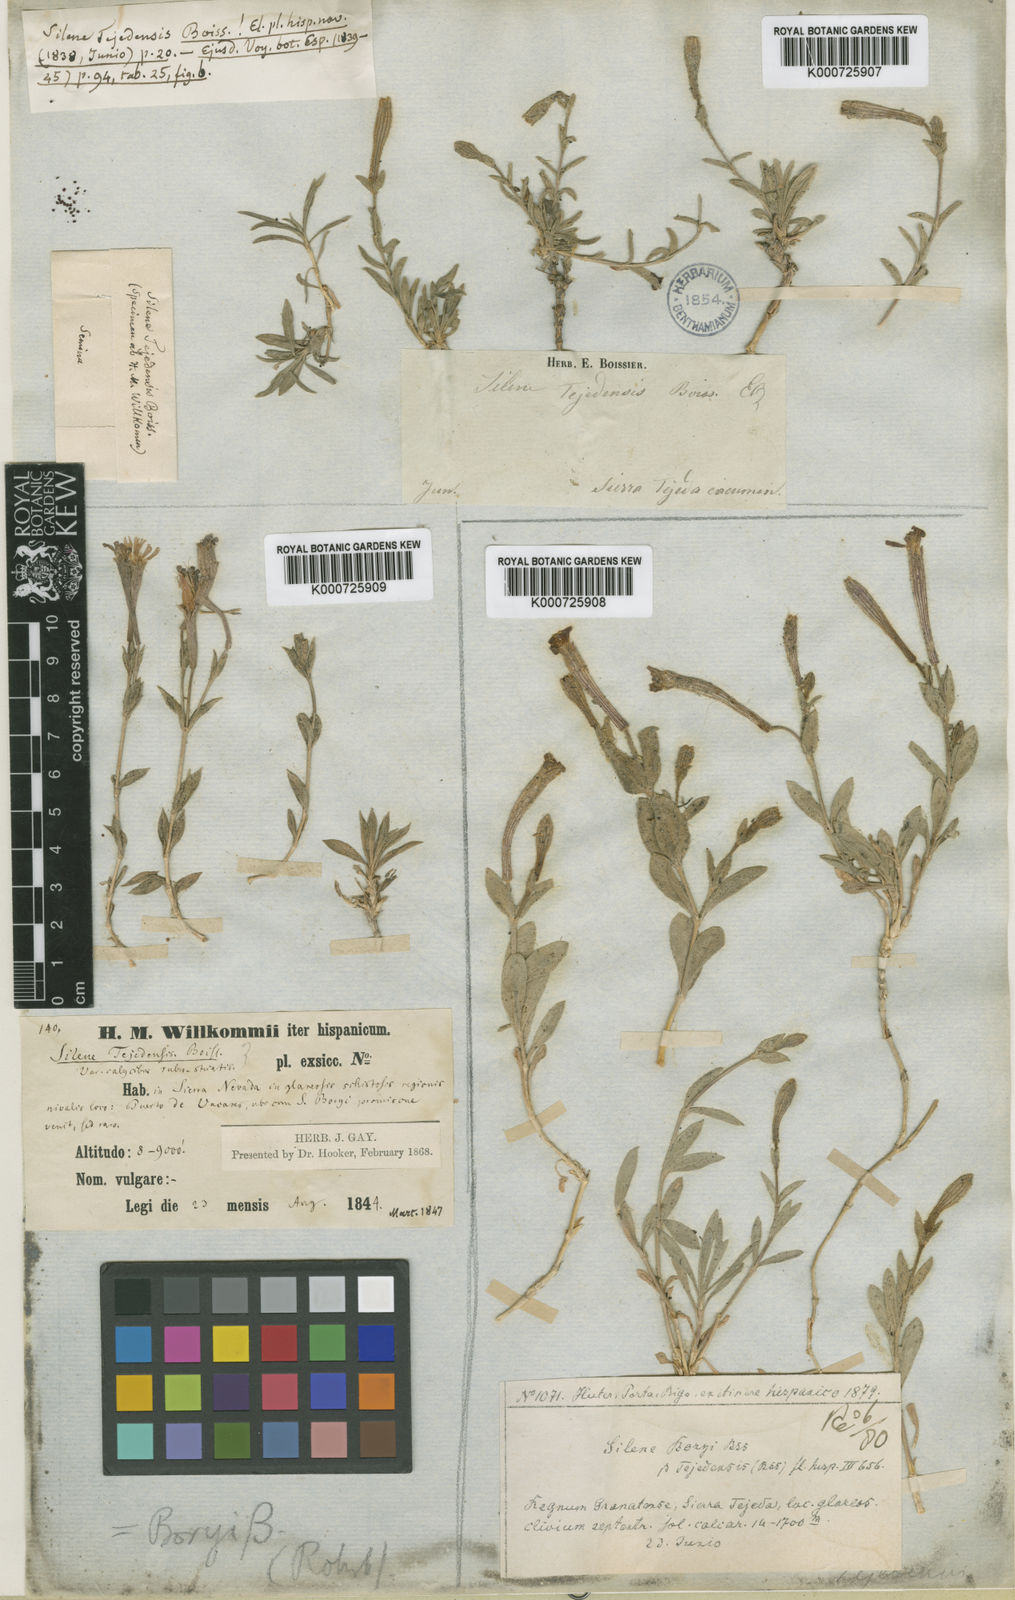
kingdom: Plantae
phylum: Tracheophyta
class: Magnoliopsida
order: Caryophyllales
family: Caryophyllaceae
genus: Silene
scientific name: Silene boryi
